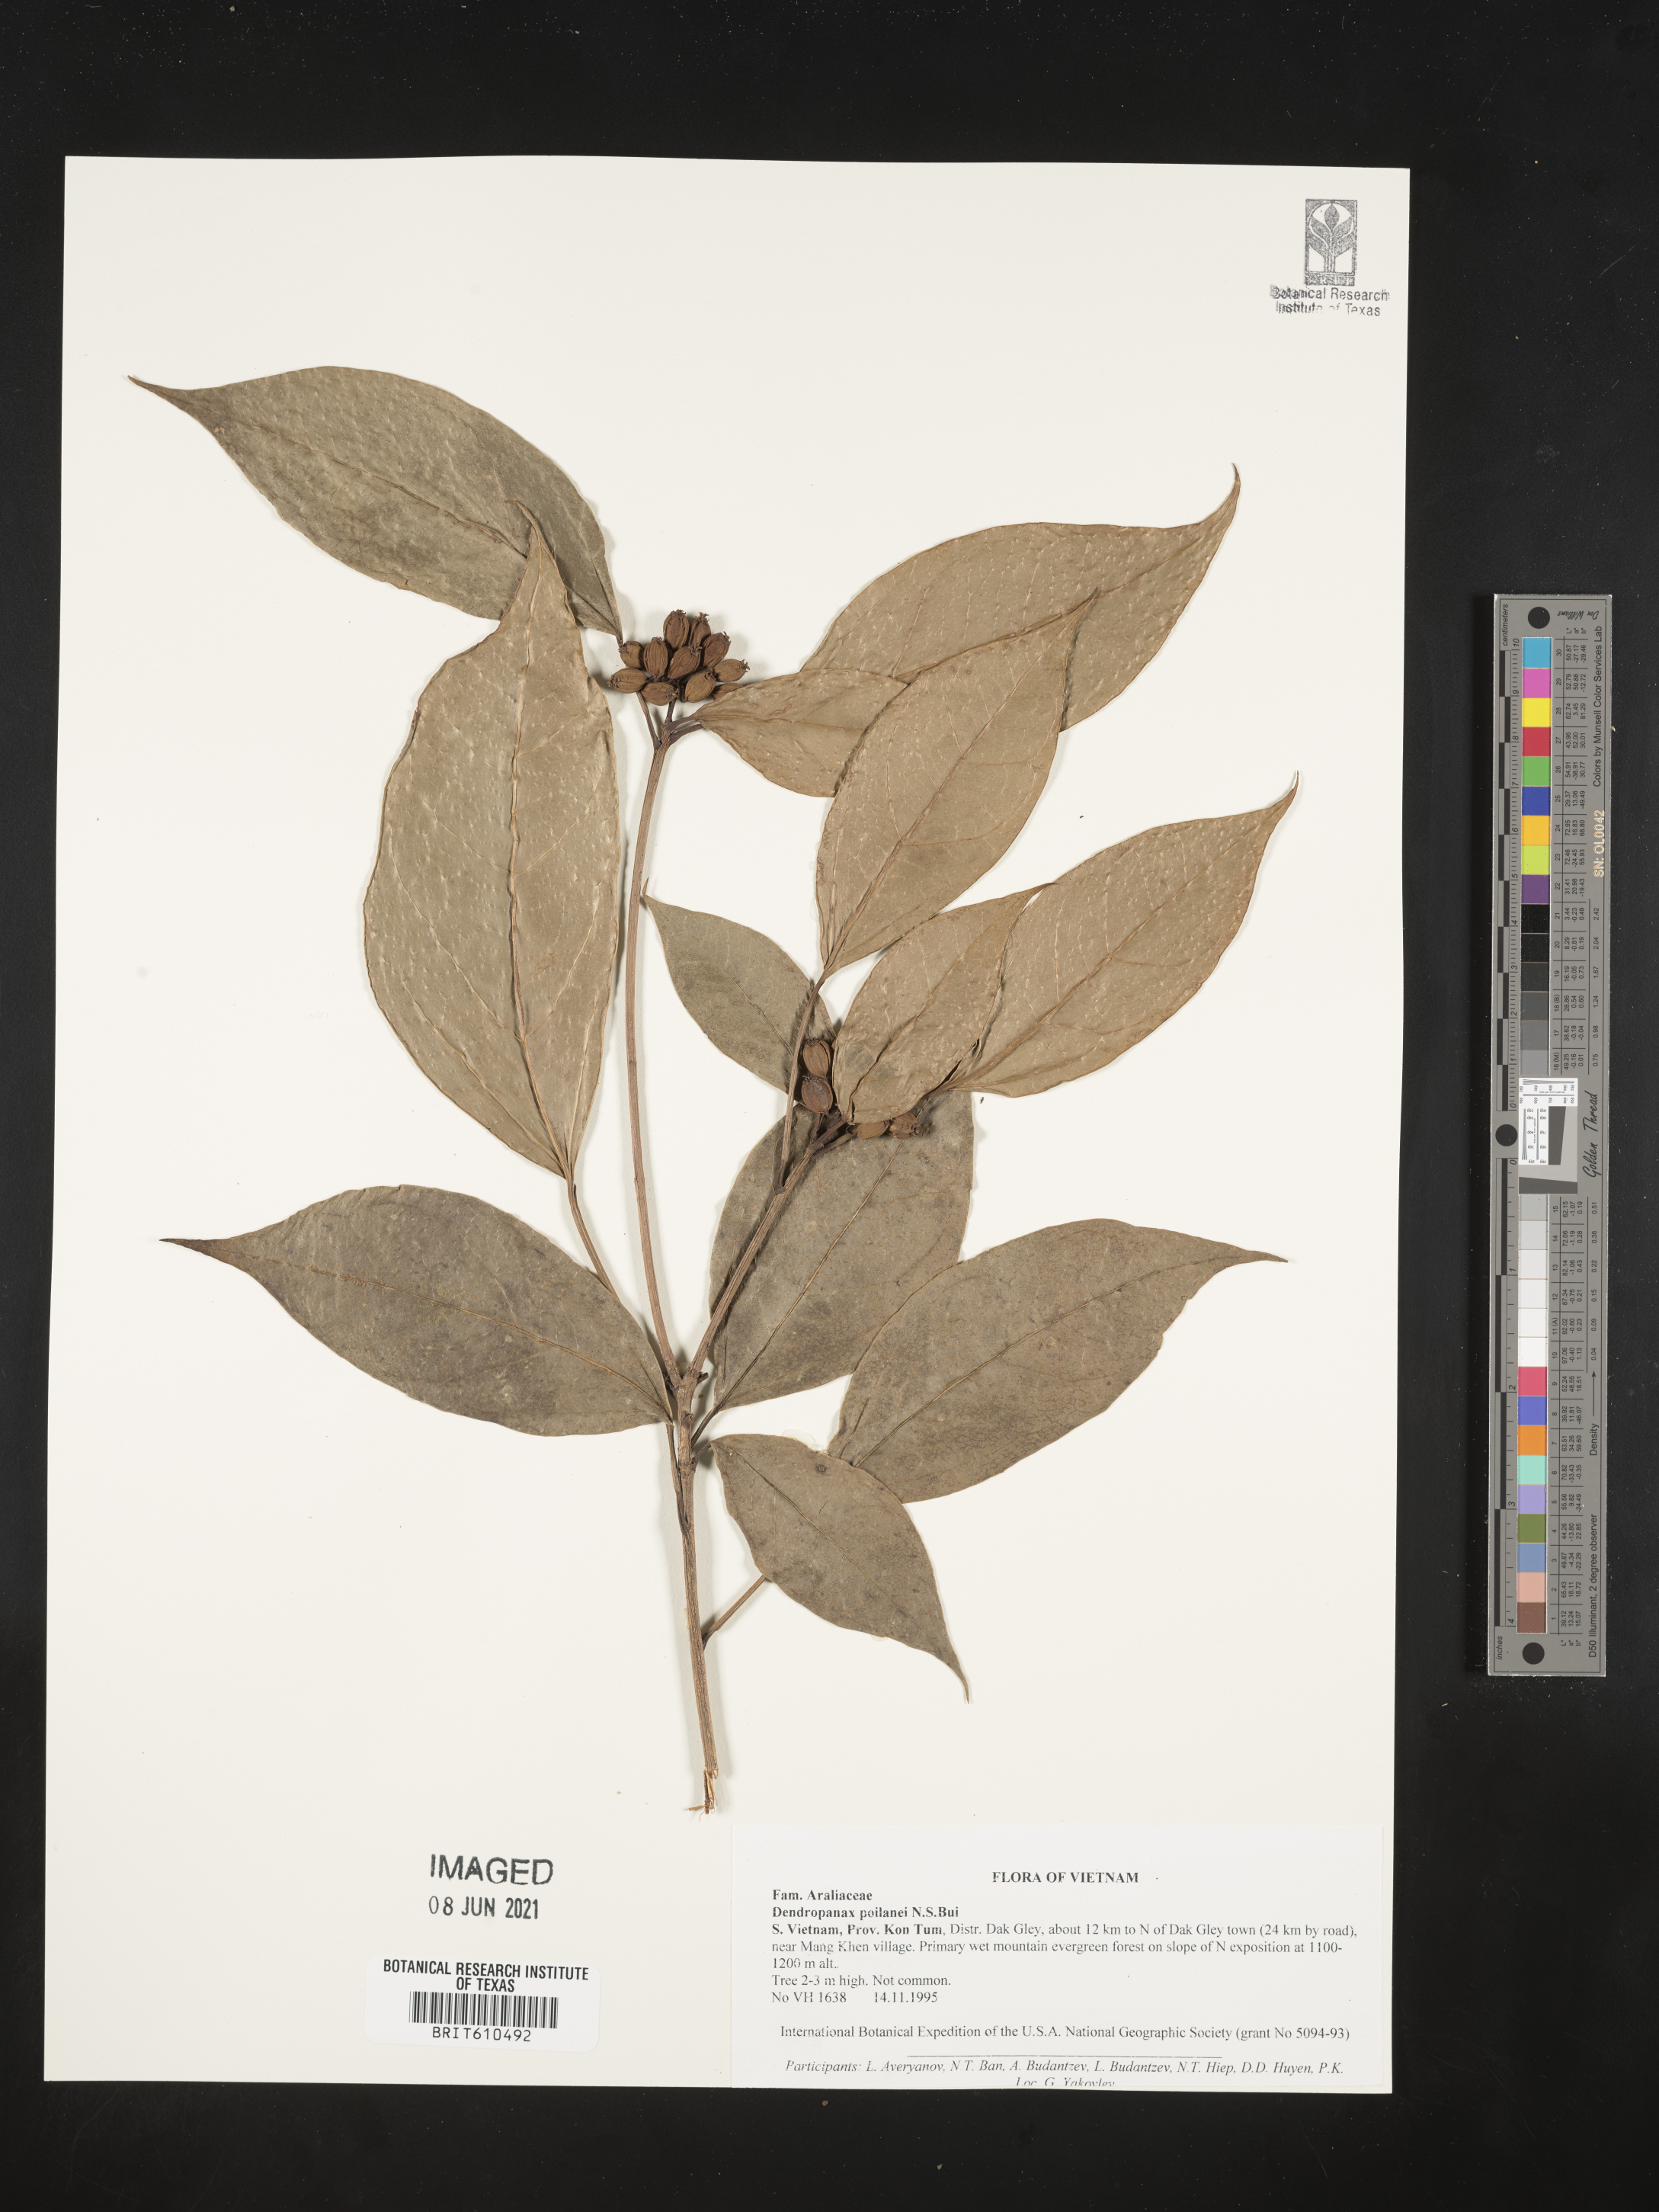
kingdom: Plantae
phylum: Tracheophyta
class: Magnoliopsida
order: Apiales
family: Araliaceae
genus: Dendropanax
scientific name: Dendropanax poilanei
